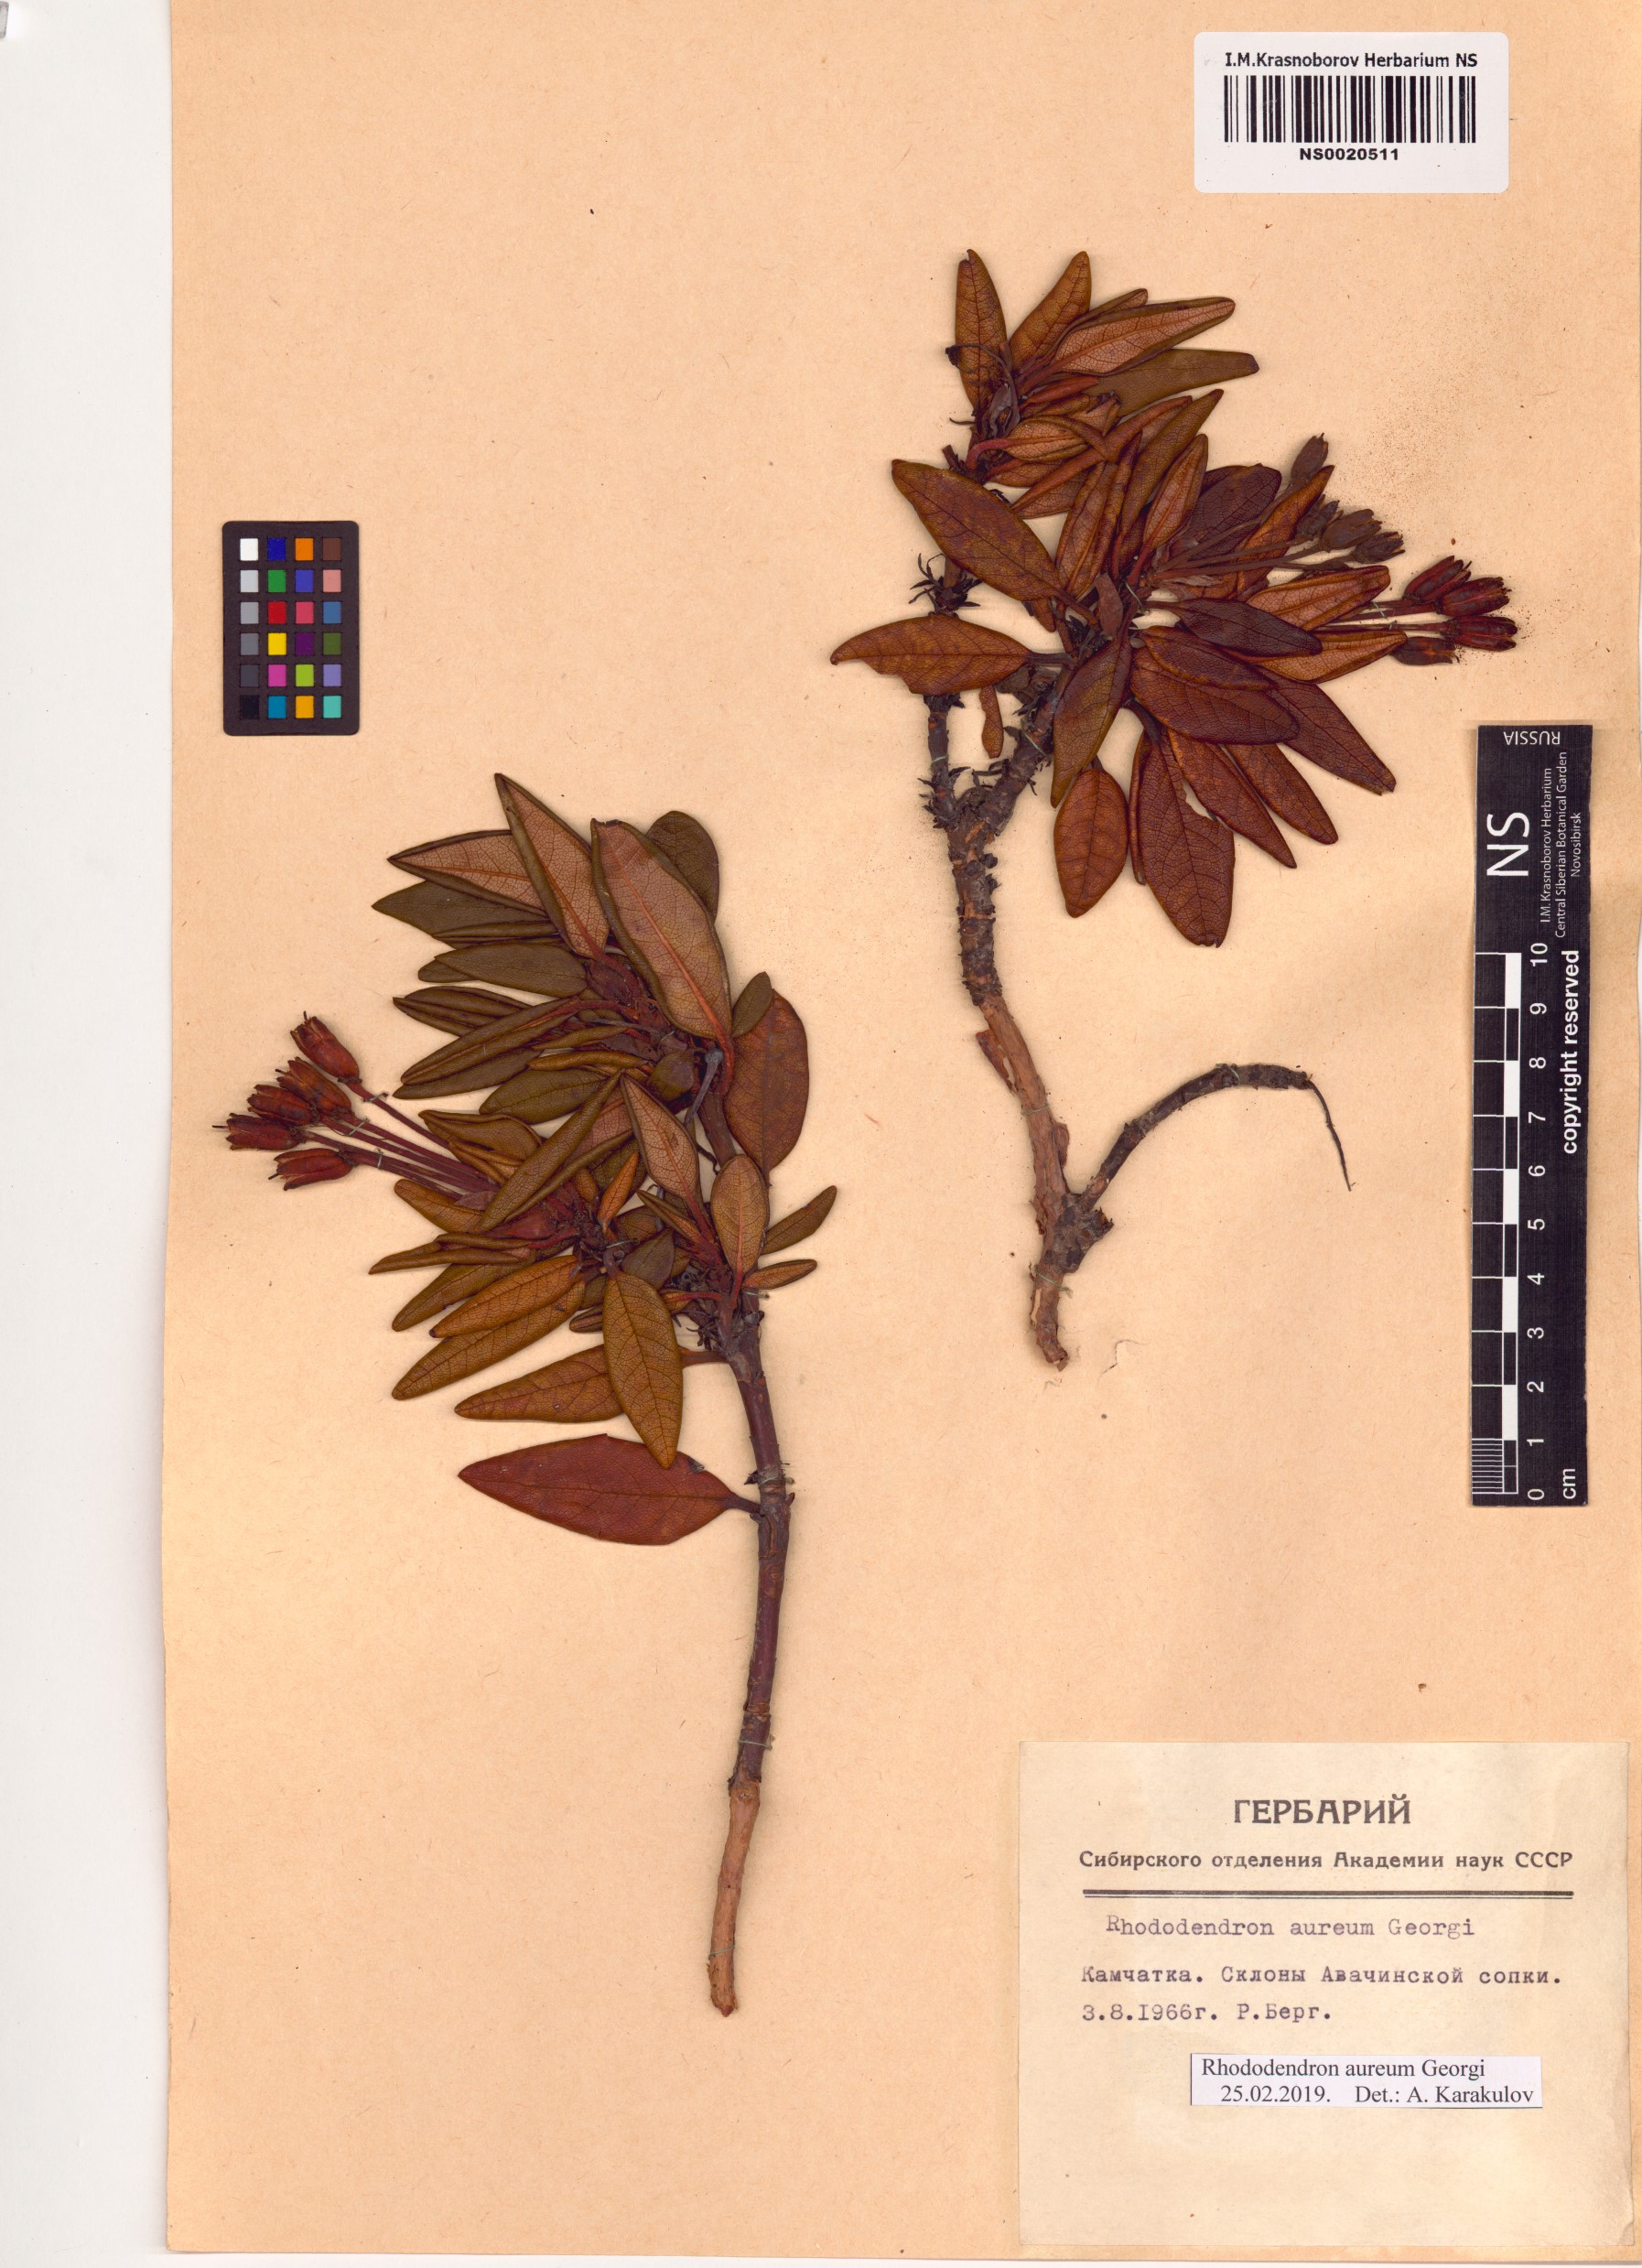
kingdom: Plantae
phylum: Tracheophyta
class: Magnoliopsida
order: Ericales
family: Ericaceae
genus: Rhododendron
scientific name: Rhododendron aureum
